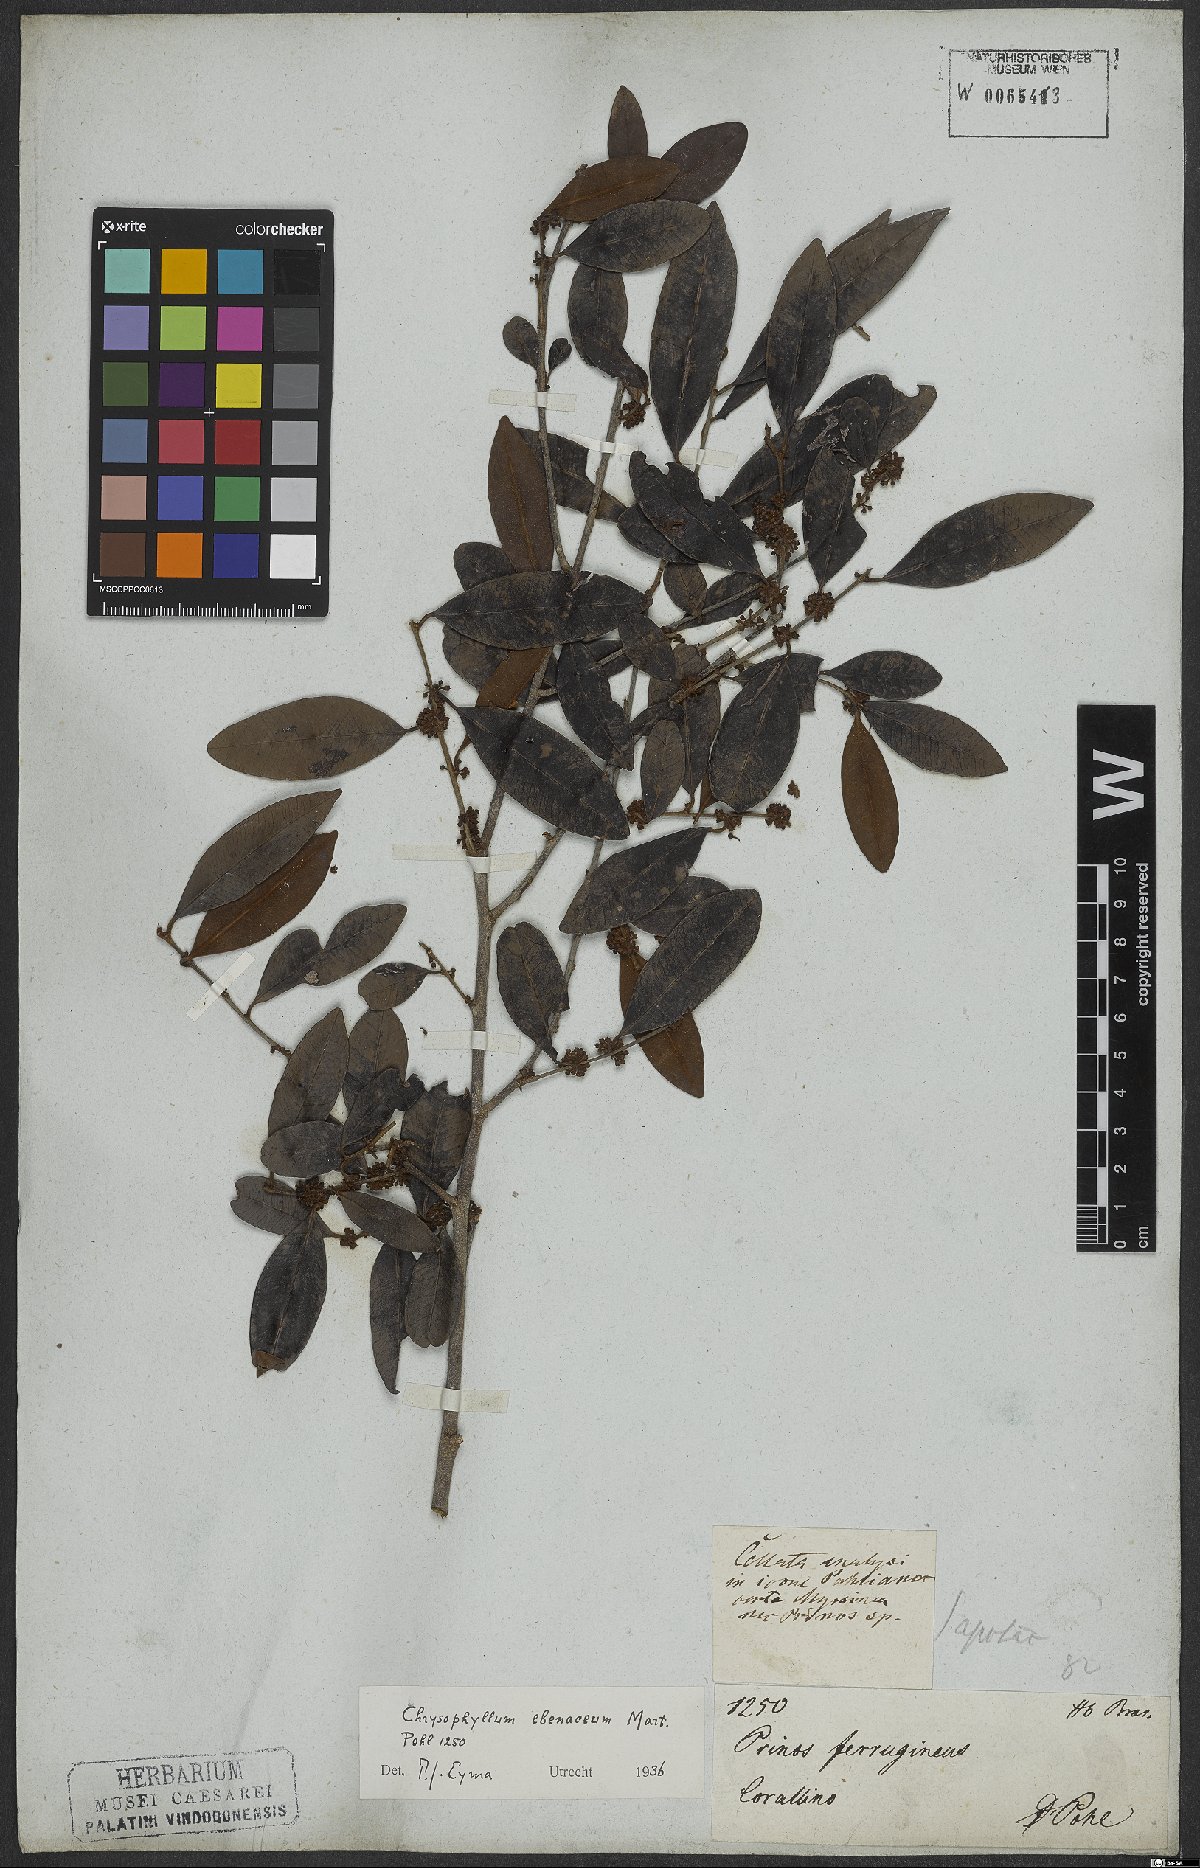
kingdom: Plantae
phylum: Tracheophyta
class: Magnoliopsida
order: Ericales
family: Sapotaceae
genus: Chrysophyllum
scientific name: Chrysophyllum marginatum
